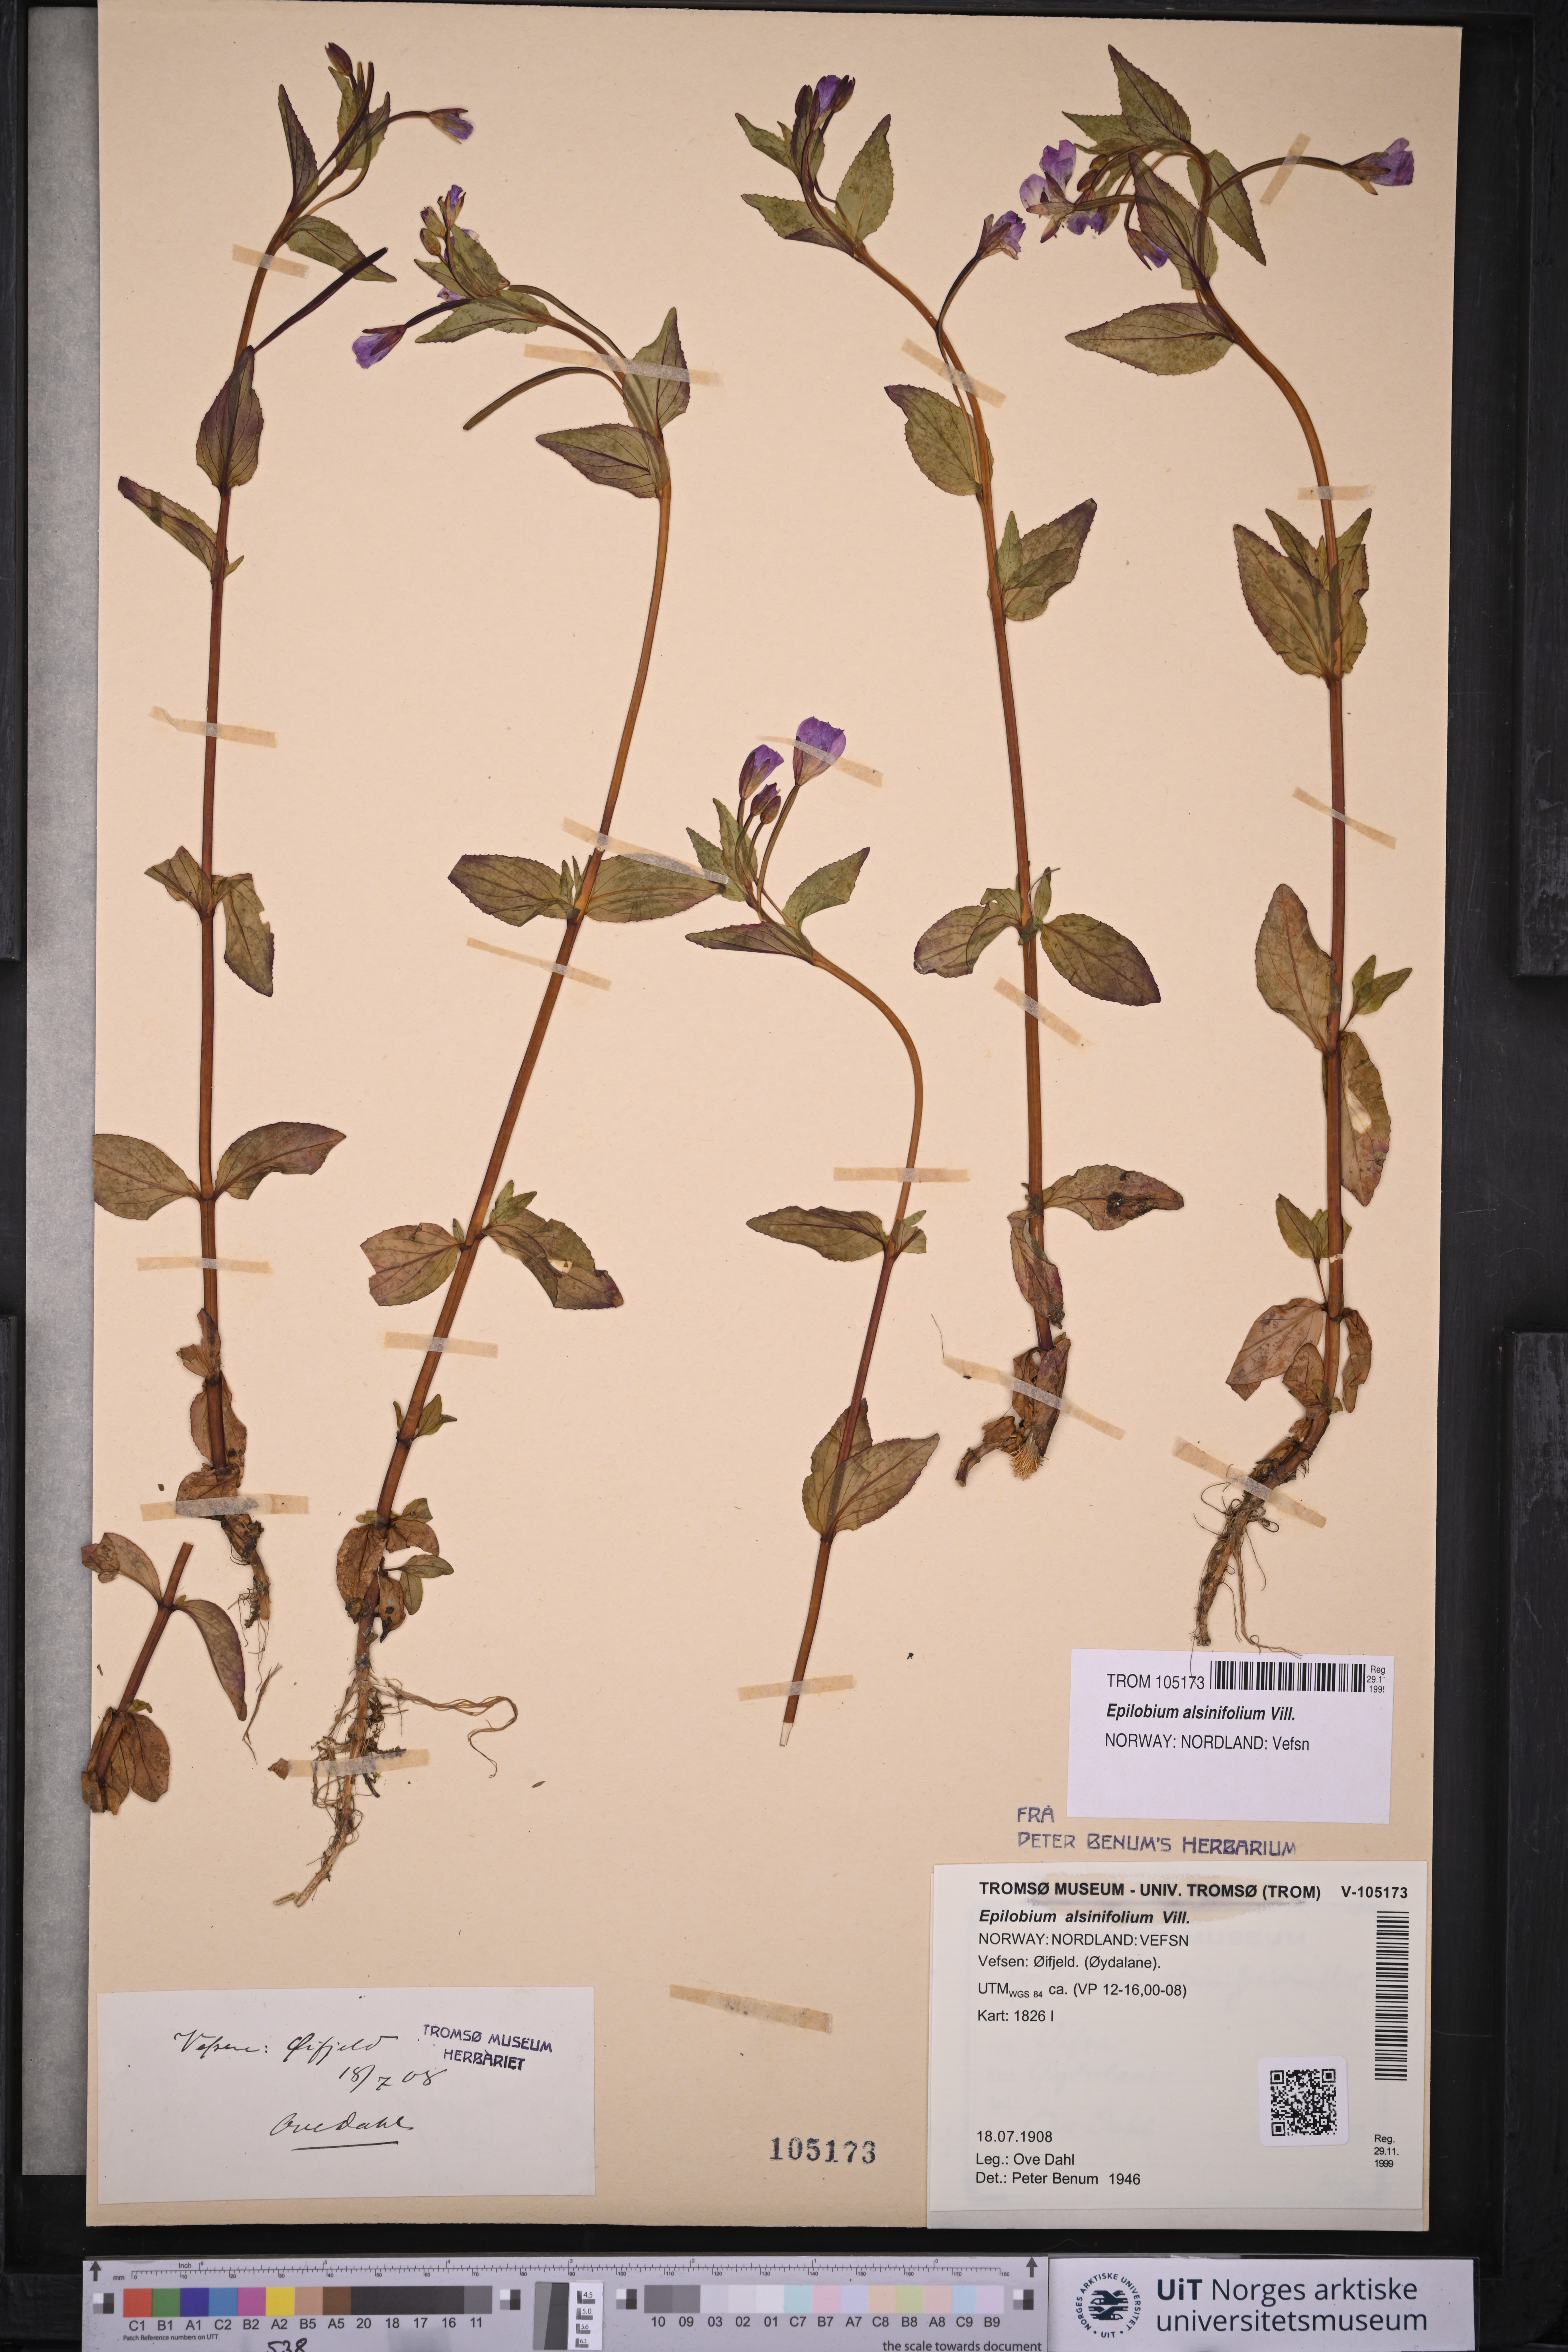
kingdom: Plantae
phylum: Tracheophyta
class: Magnoliopsida
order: Myrtales
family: Onagraceae
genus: Epilobium
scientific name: Epilobium alsinifolium
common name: Chickweed willowherb
